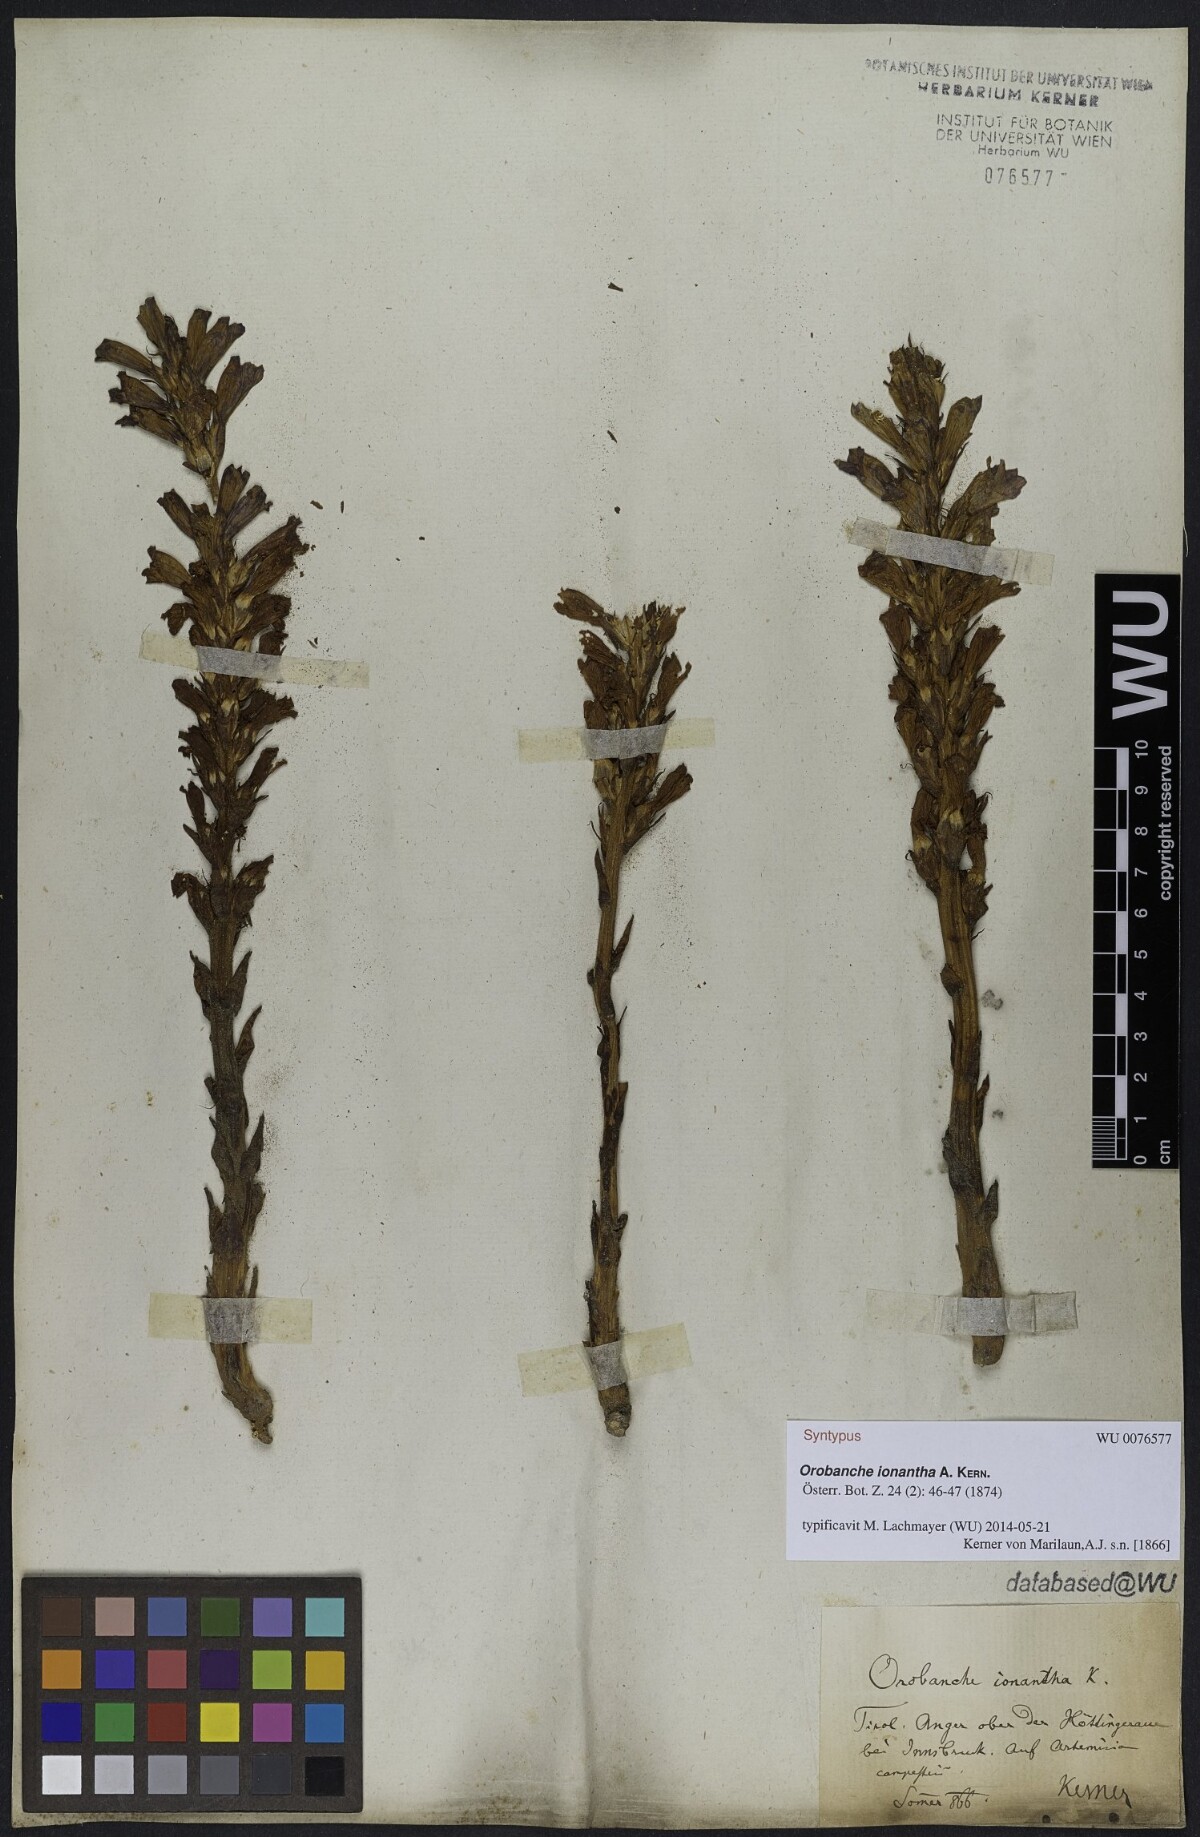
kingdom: Plantae
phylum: Tracheophyta
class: Magnoliopsida
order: Lamiales
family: Orobanchaceae
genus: Phelipanche
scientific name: Phelipanche arenaria
